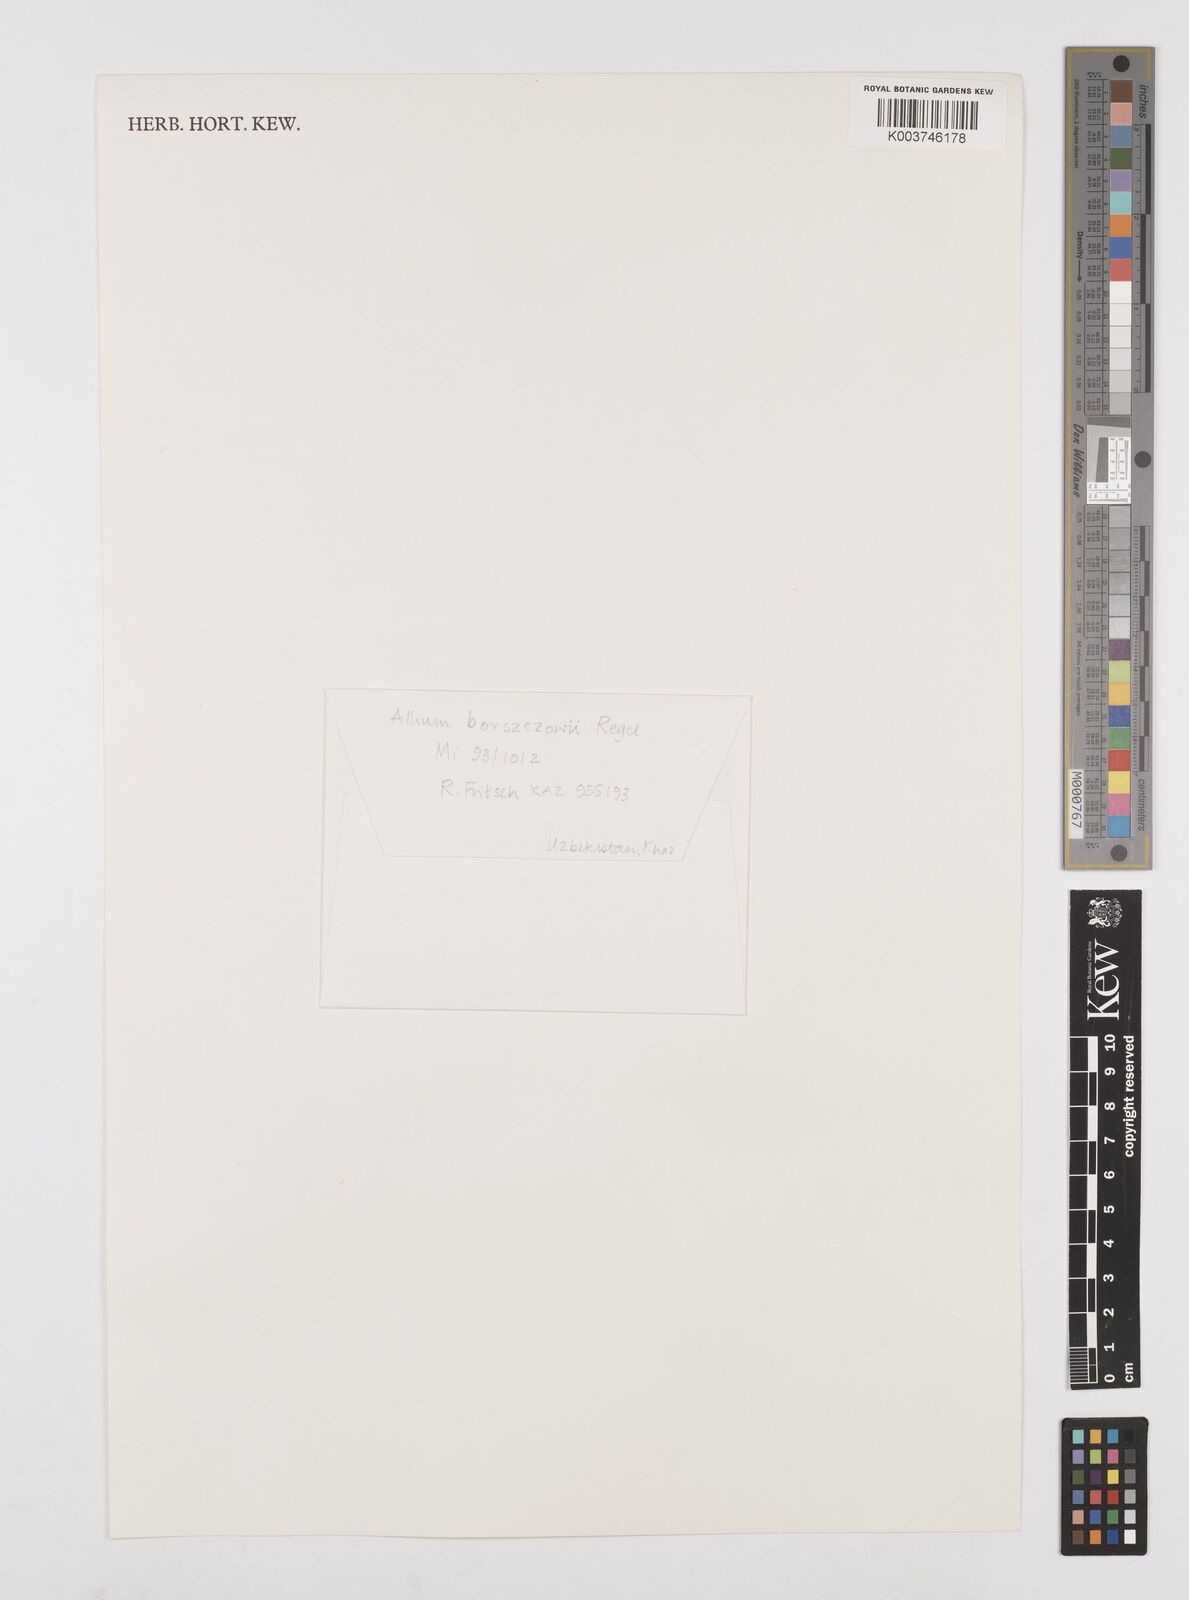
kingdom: Plantae
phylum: Tracheophyta
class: Liliopsida
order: Asparagales
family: Amaryllidaceae
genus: Allium
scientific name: Allium borszczowii
